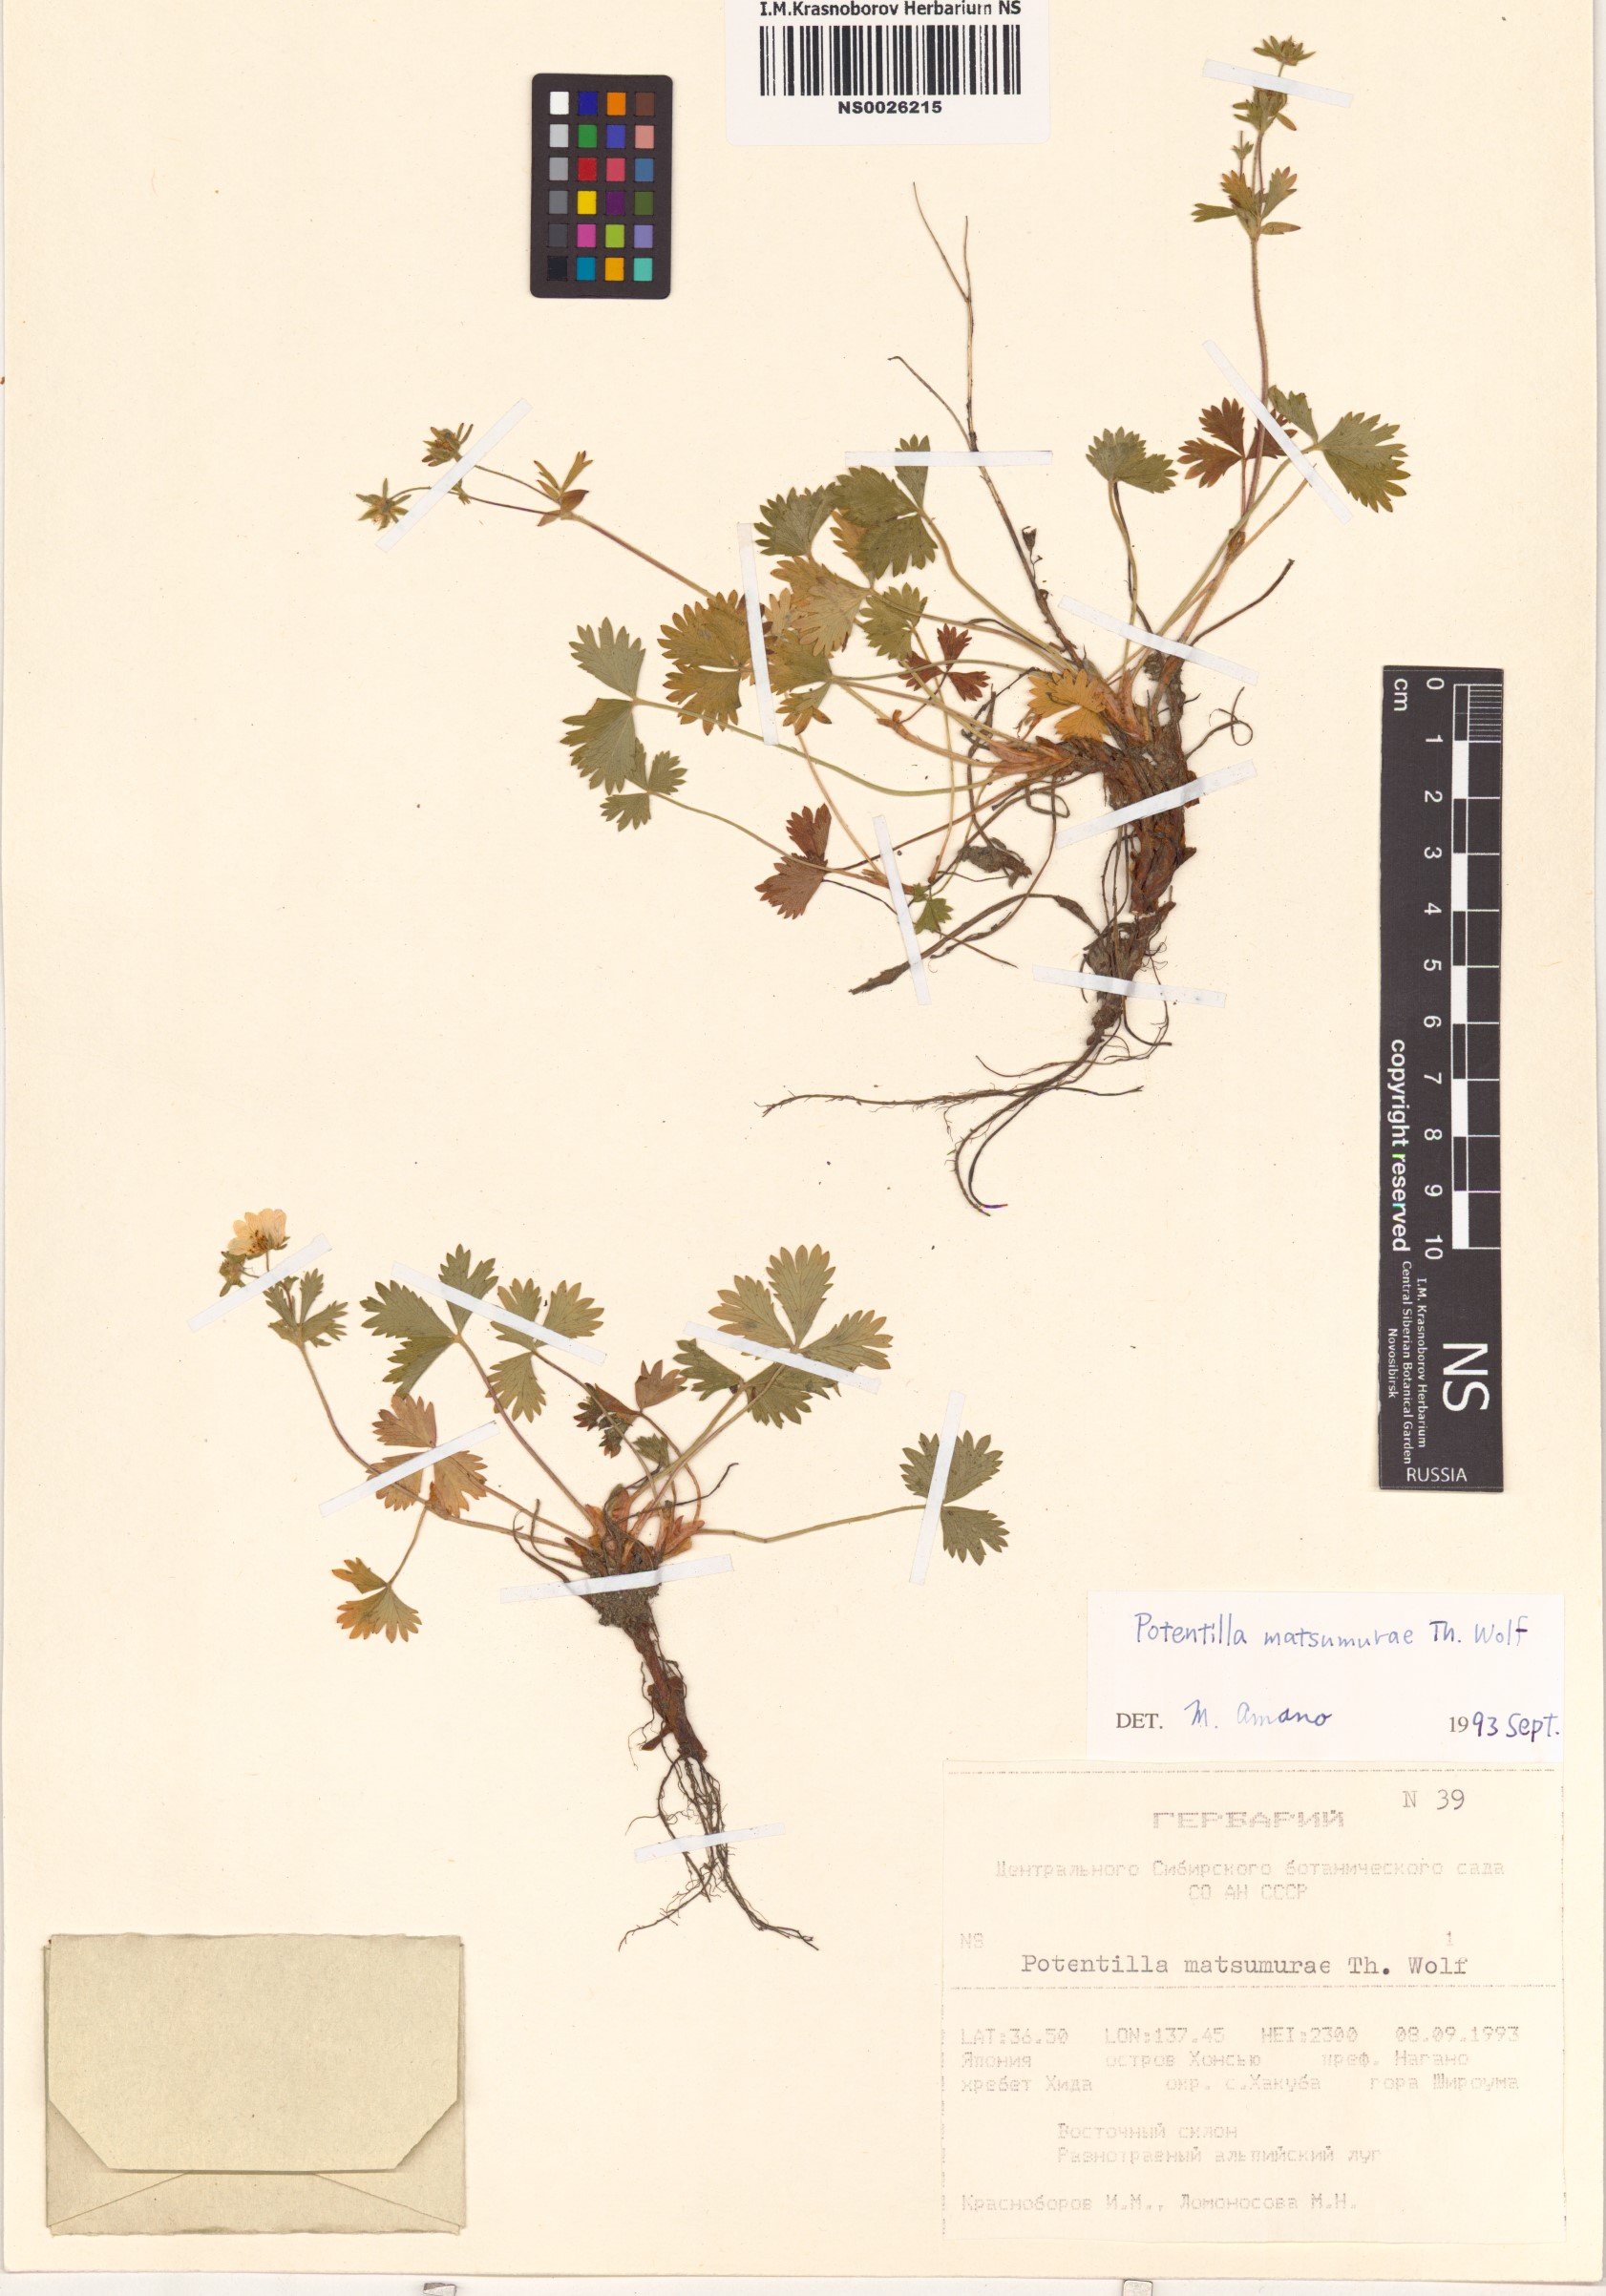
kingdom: Plantae
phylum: Tracheophyta
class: Magnoliopsida
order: Rosales
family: Rosaceae
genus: Potentilla
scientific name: Potentilla matsumurae
